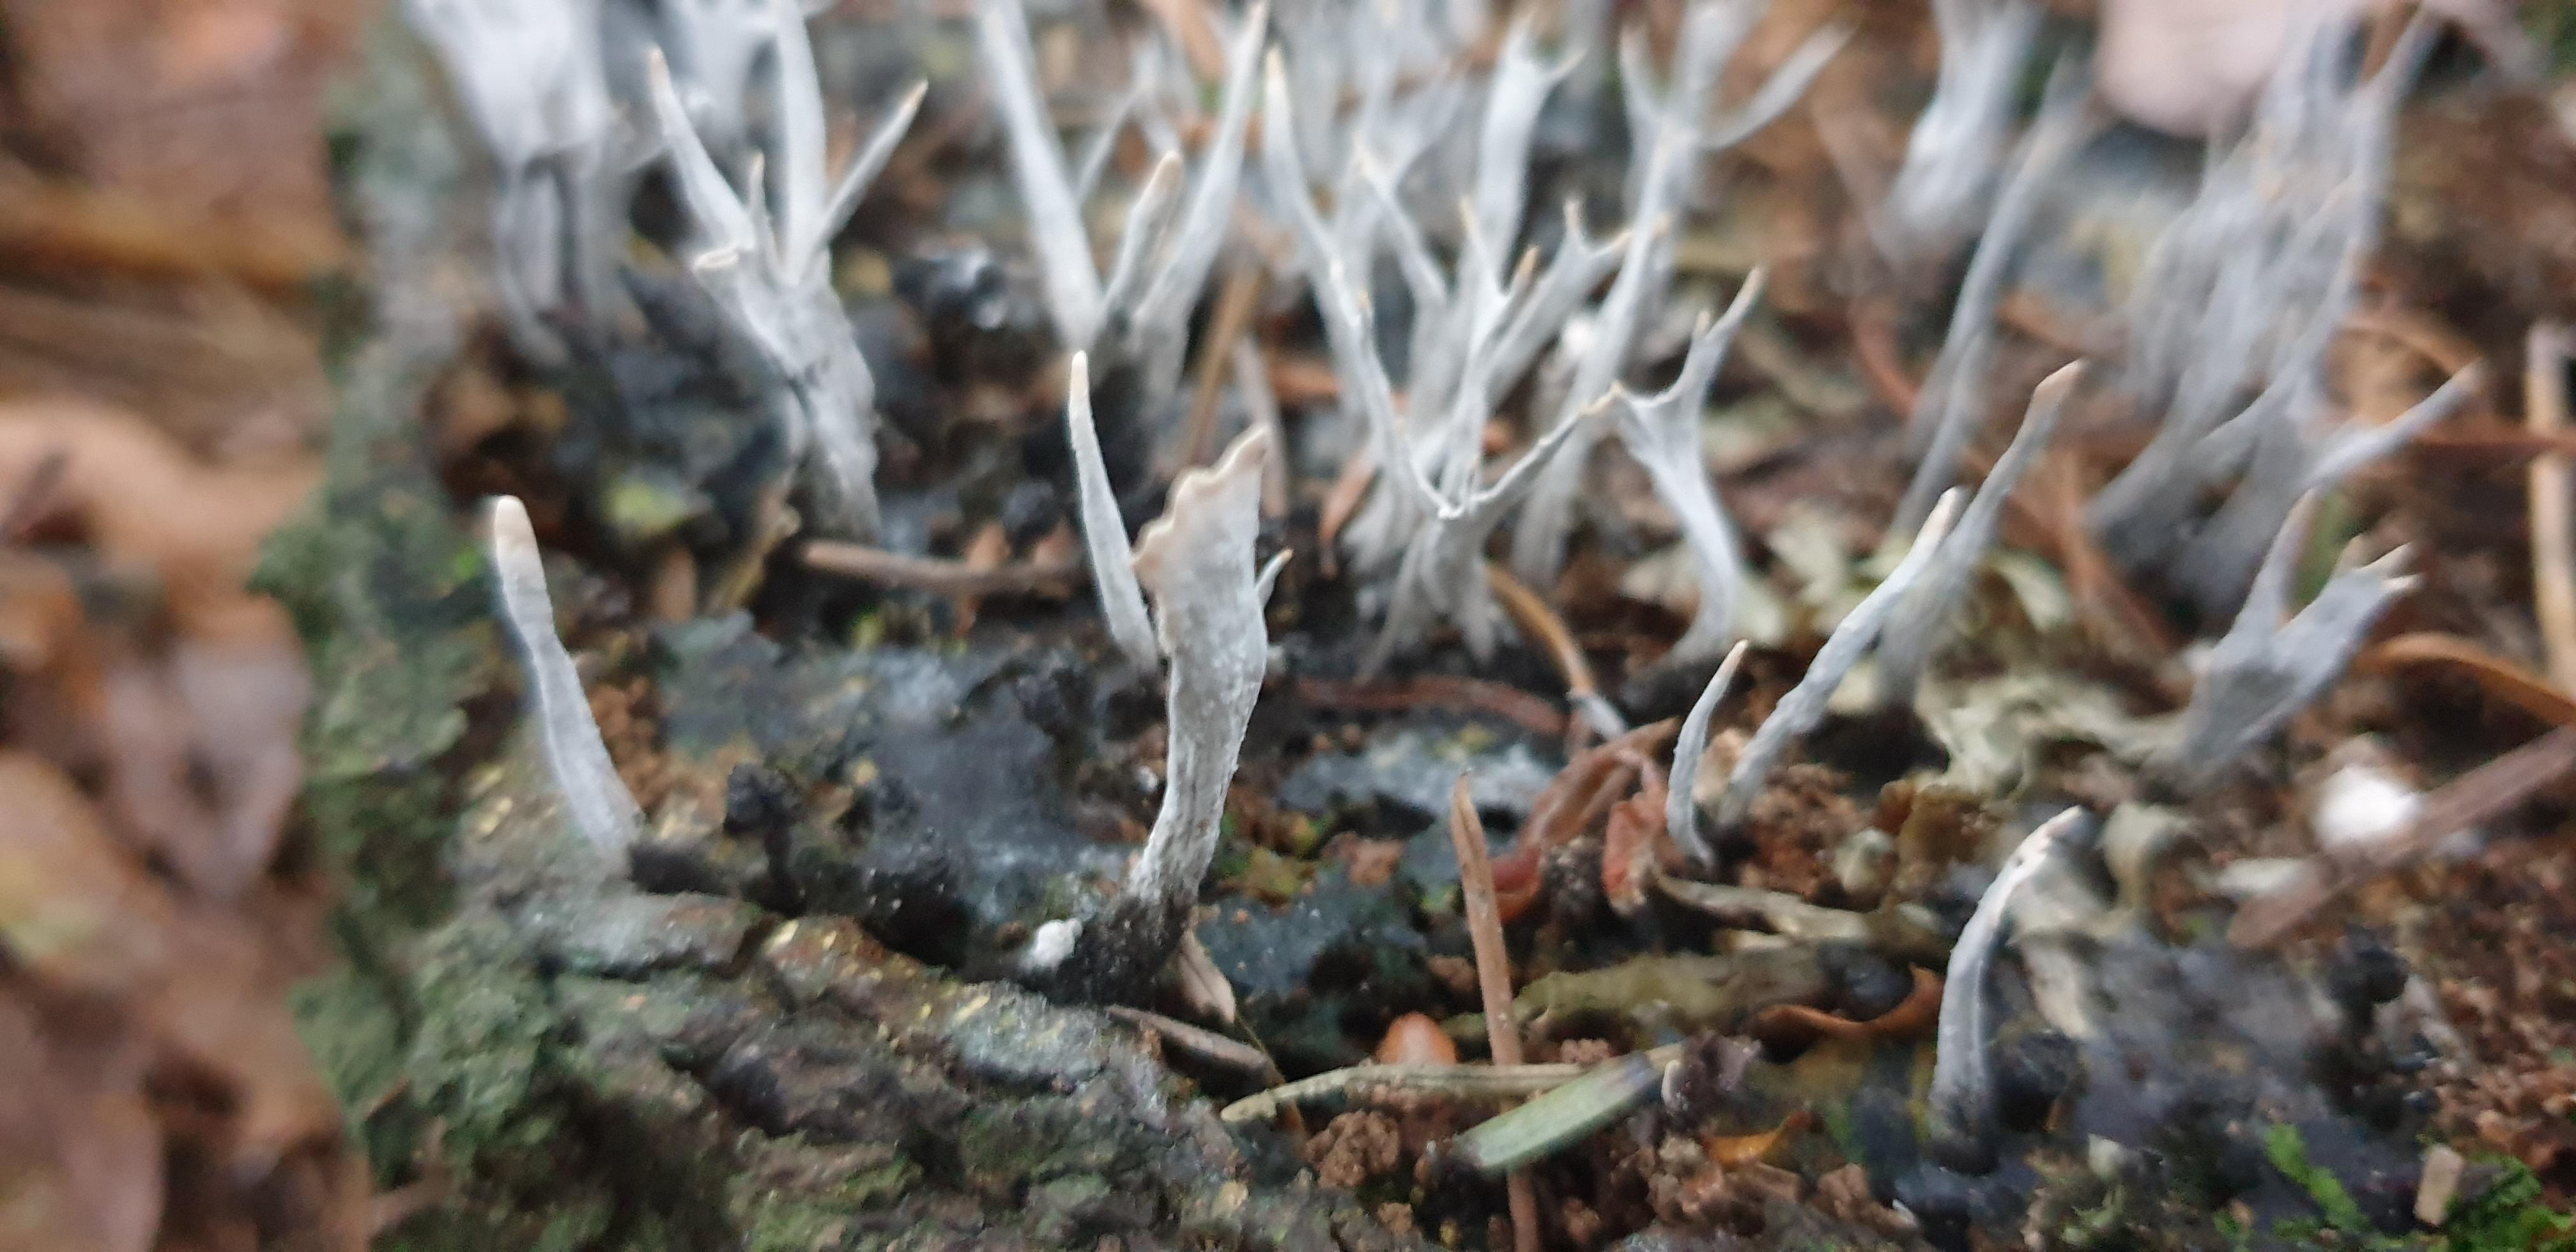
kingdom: Fungi
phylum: Ascomycota
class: Sordariomycetes
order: Xylariales
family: Xylariaceae
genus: Xylaria
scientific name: Xylaria hypoxylon
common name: grenet stødsvamp
